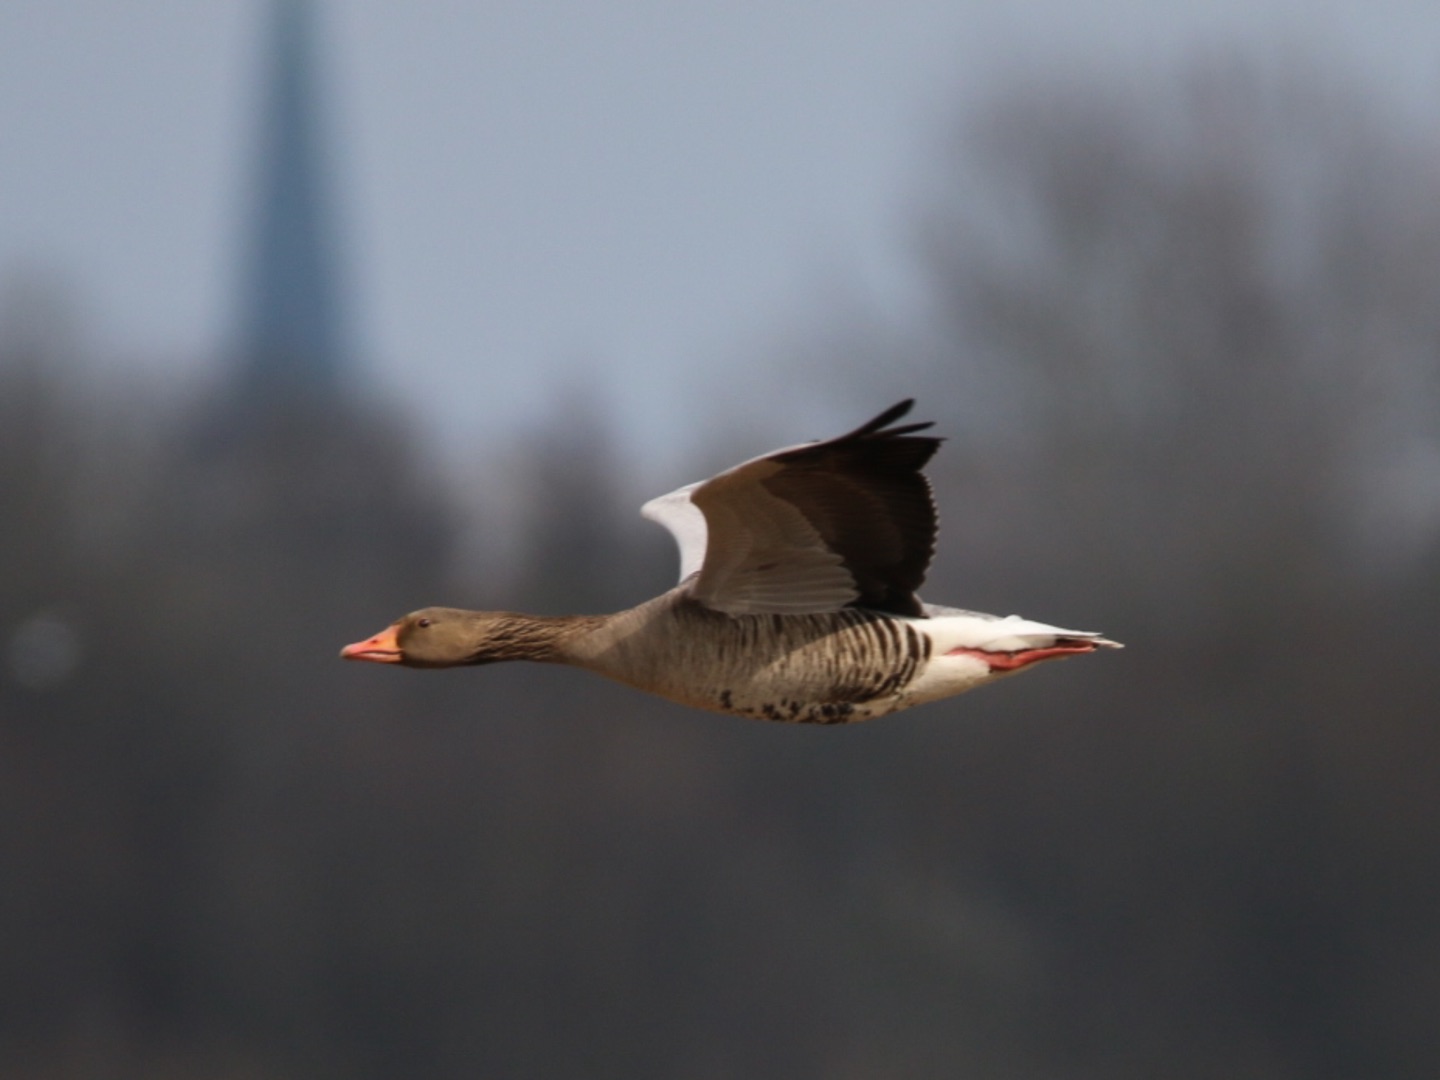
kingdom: Animalia
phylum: Chordata
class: Aves
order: Anseriformes
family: Anatidae
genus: Anser
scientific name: Anser anser
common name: Grågås
